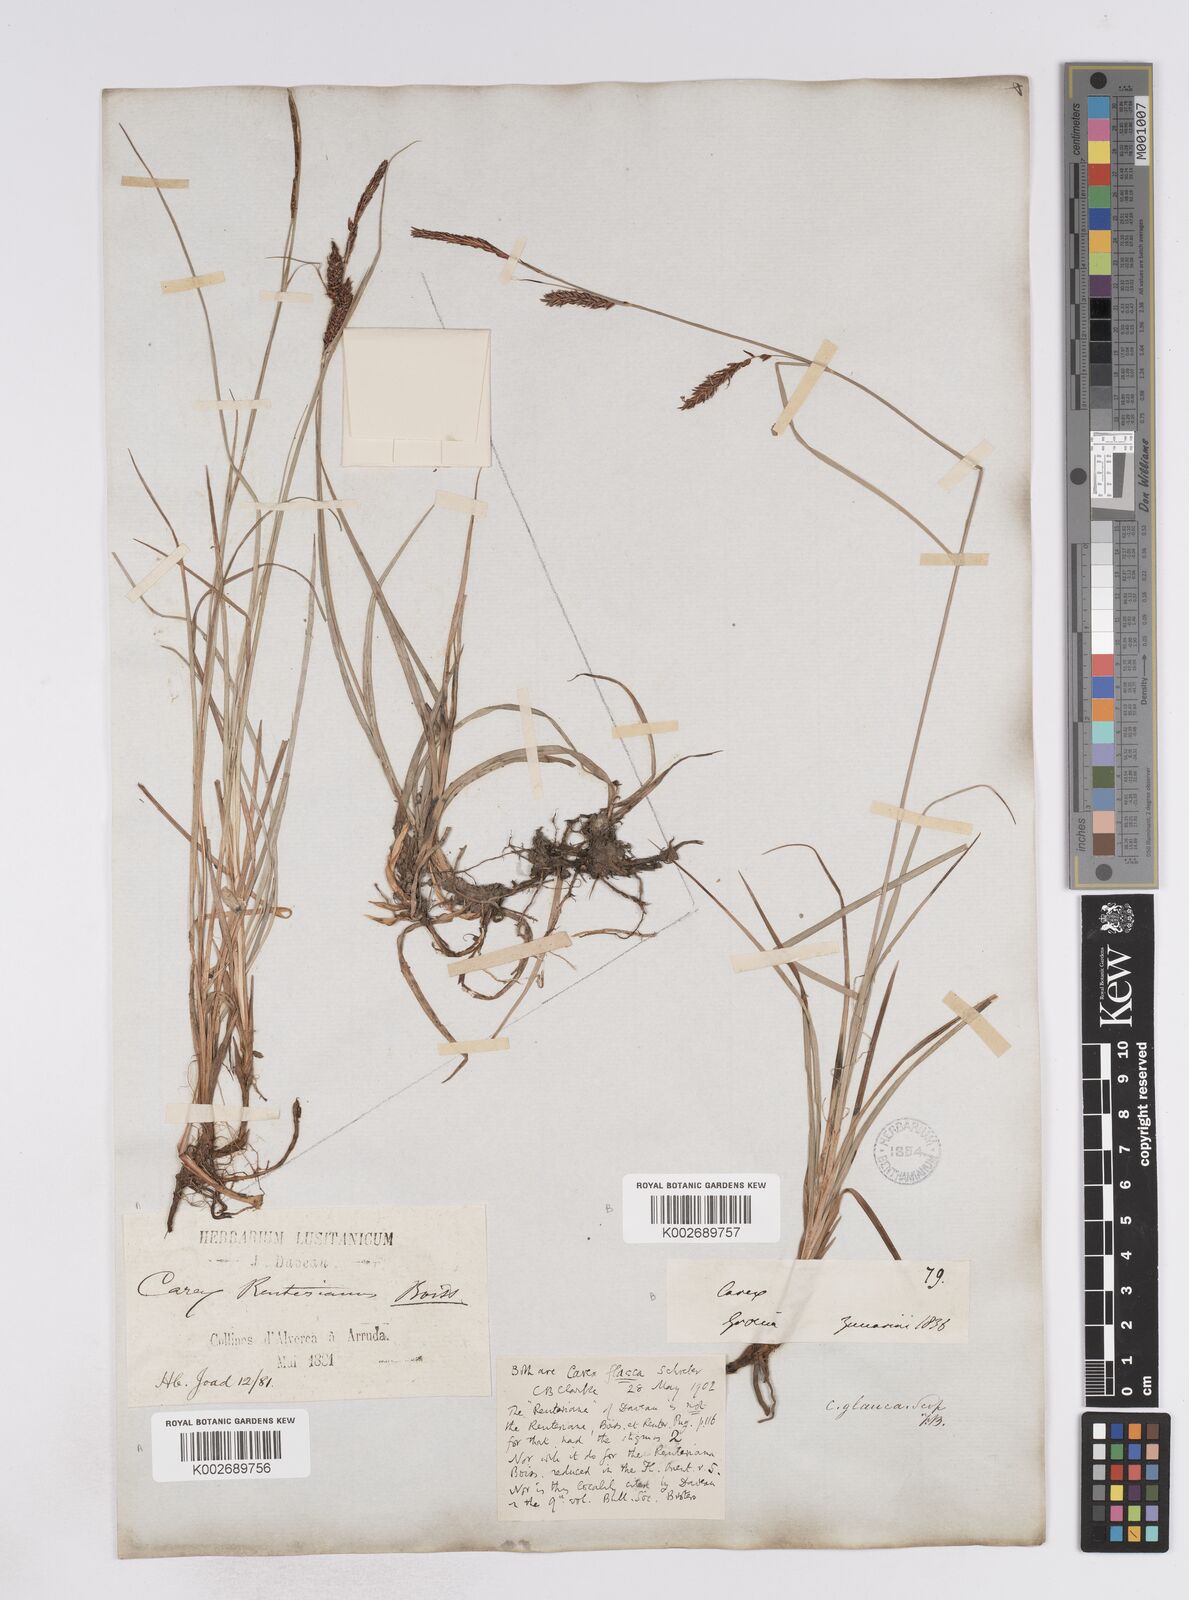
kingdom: Plantae
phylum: Tracheophyta
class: Liliopsida
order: Poales
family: Cyperaceae
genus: Carex
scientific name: Carex flacca
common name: Glaucous sedge
